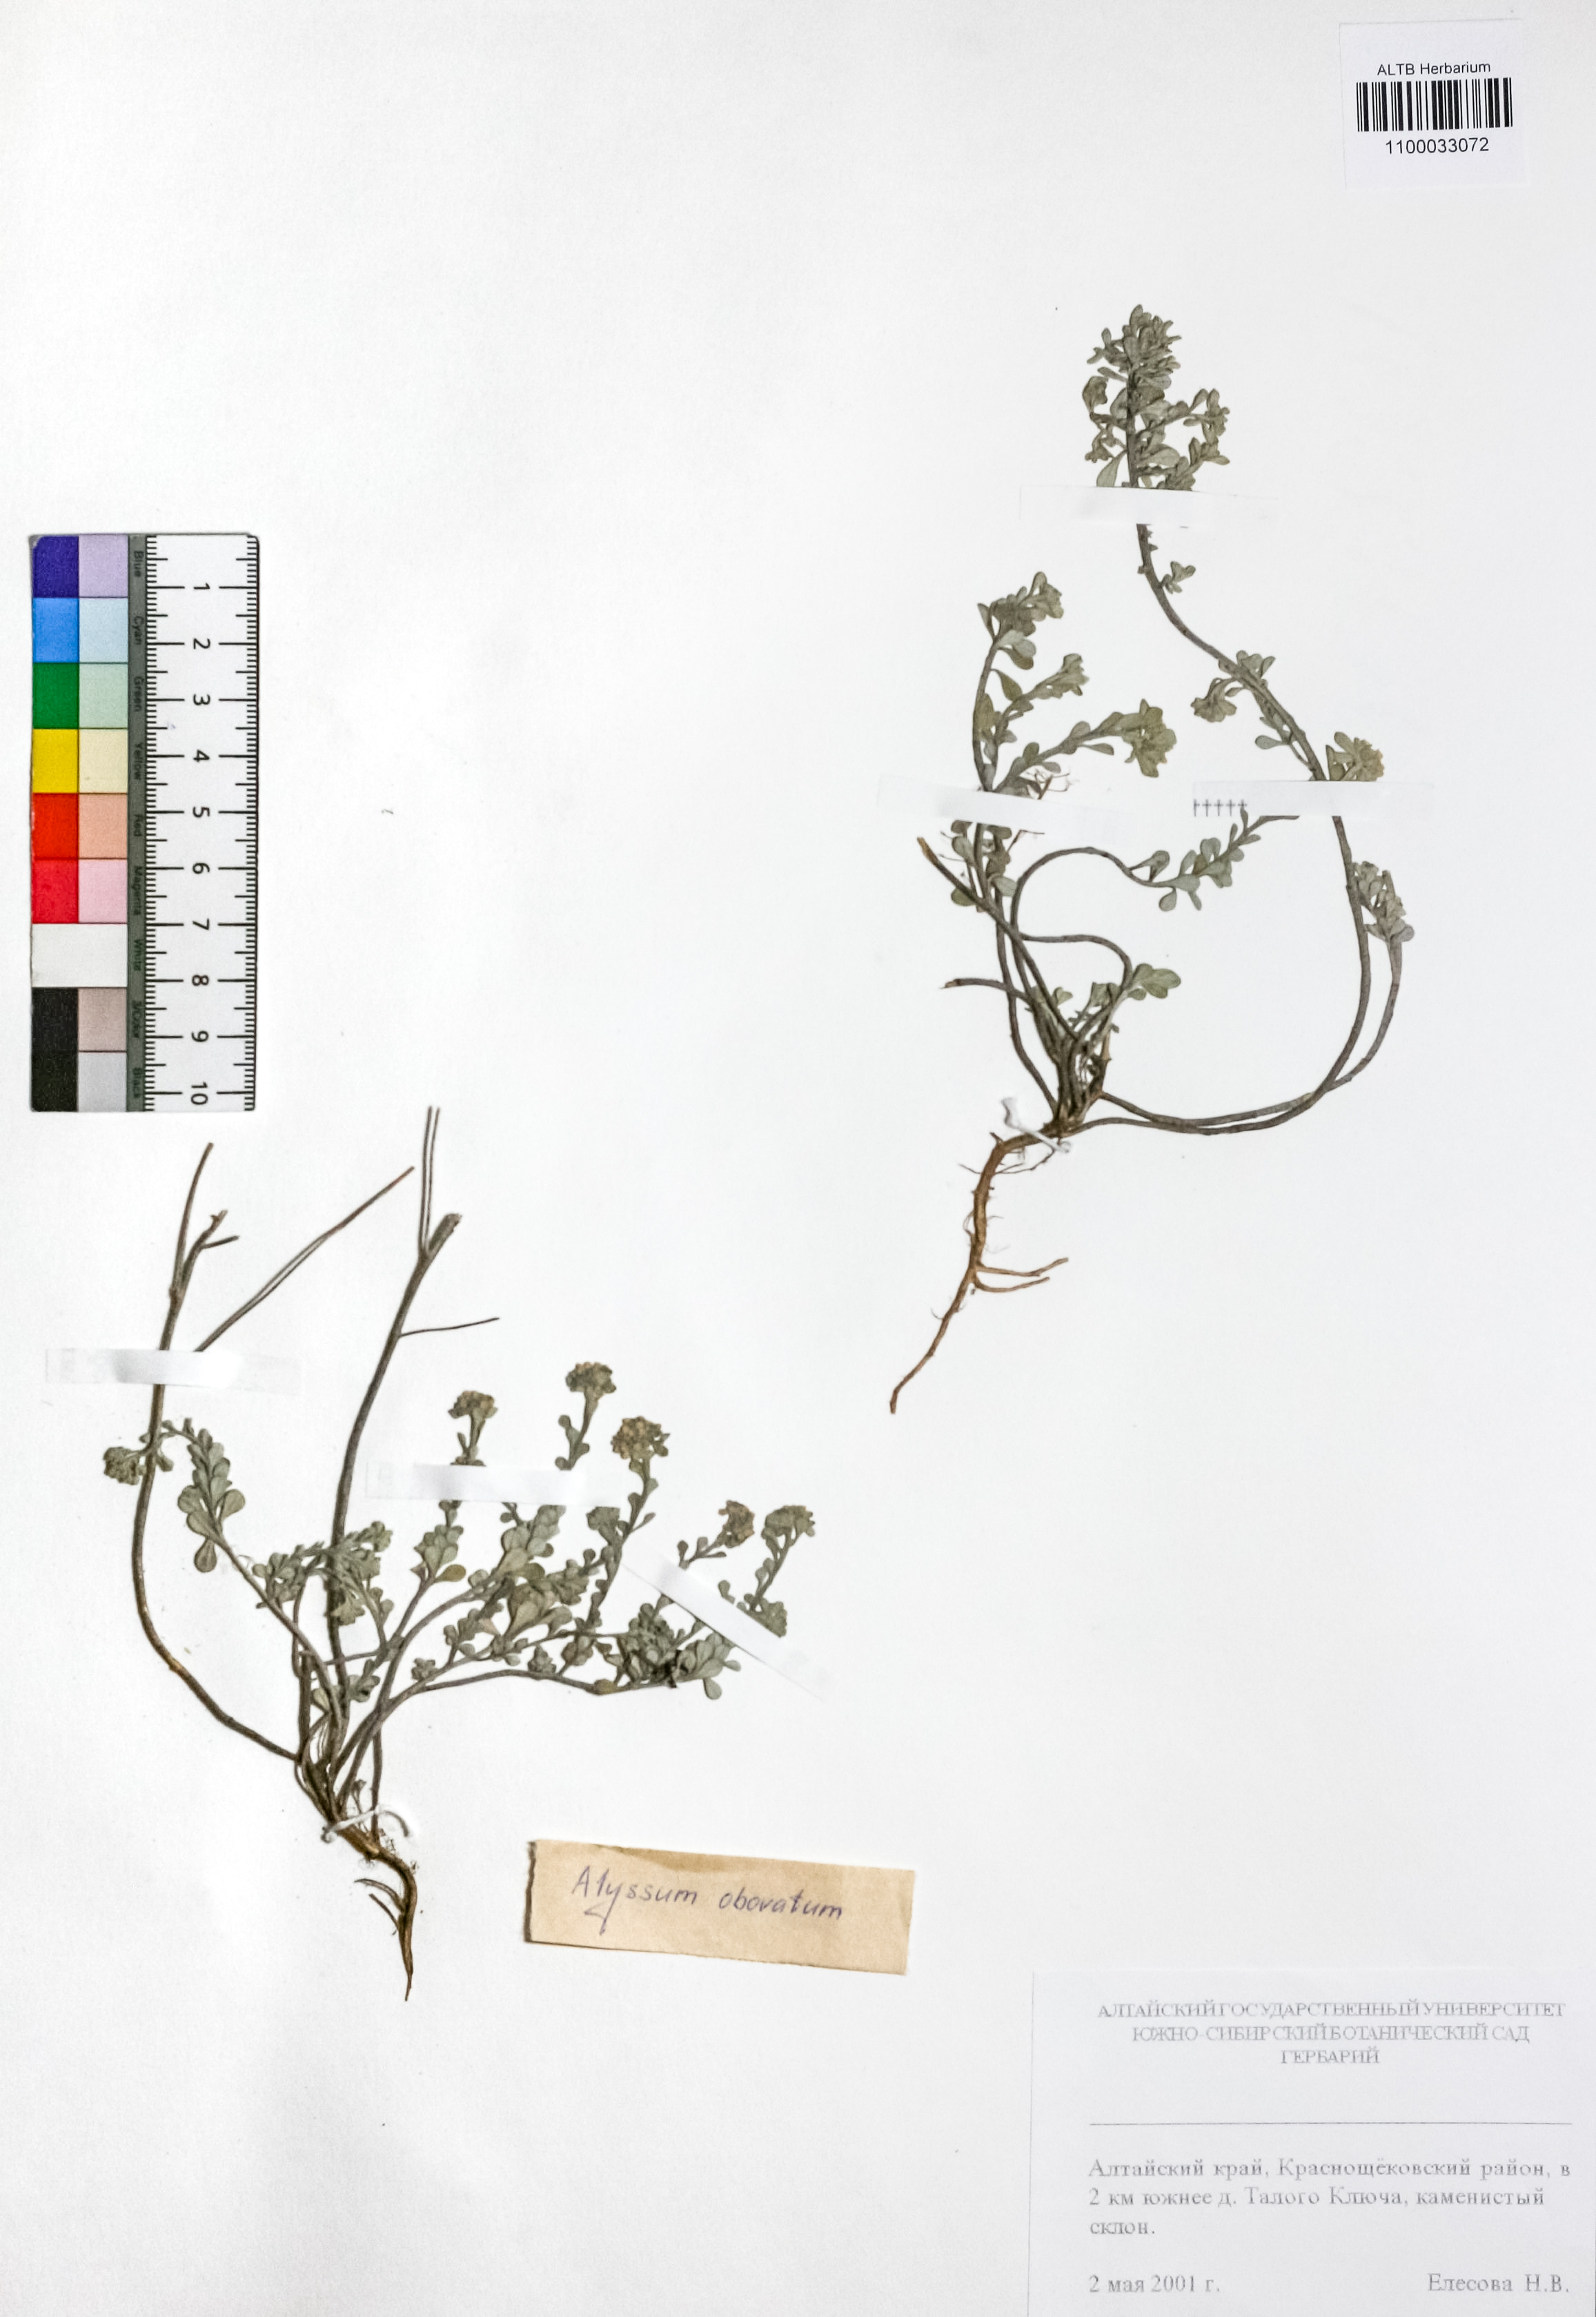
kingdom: Plantae
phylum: Tracheophyta
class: Magnoliopsida
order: Brassicales
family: Brassicaceae
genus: Odontarrhena
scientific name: Odontarrhena obovata
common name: American alyssum
